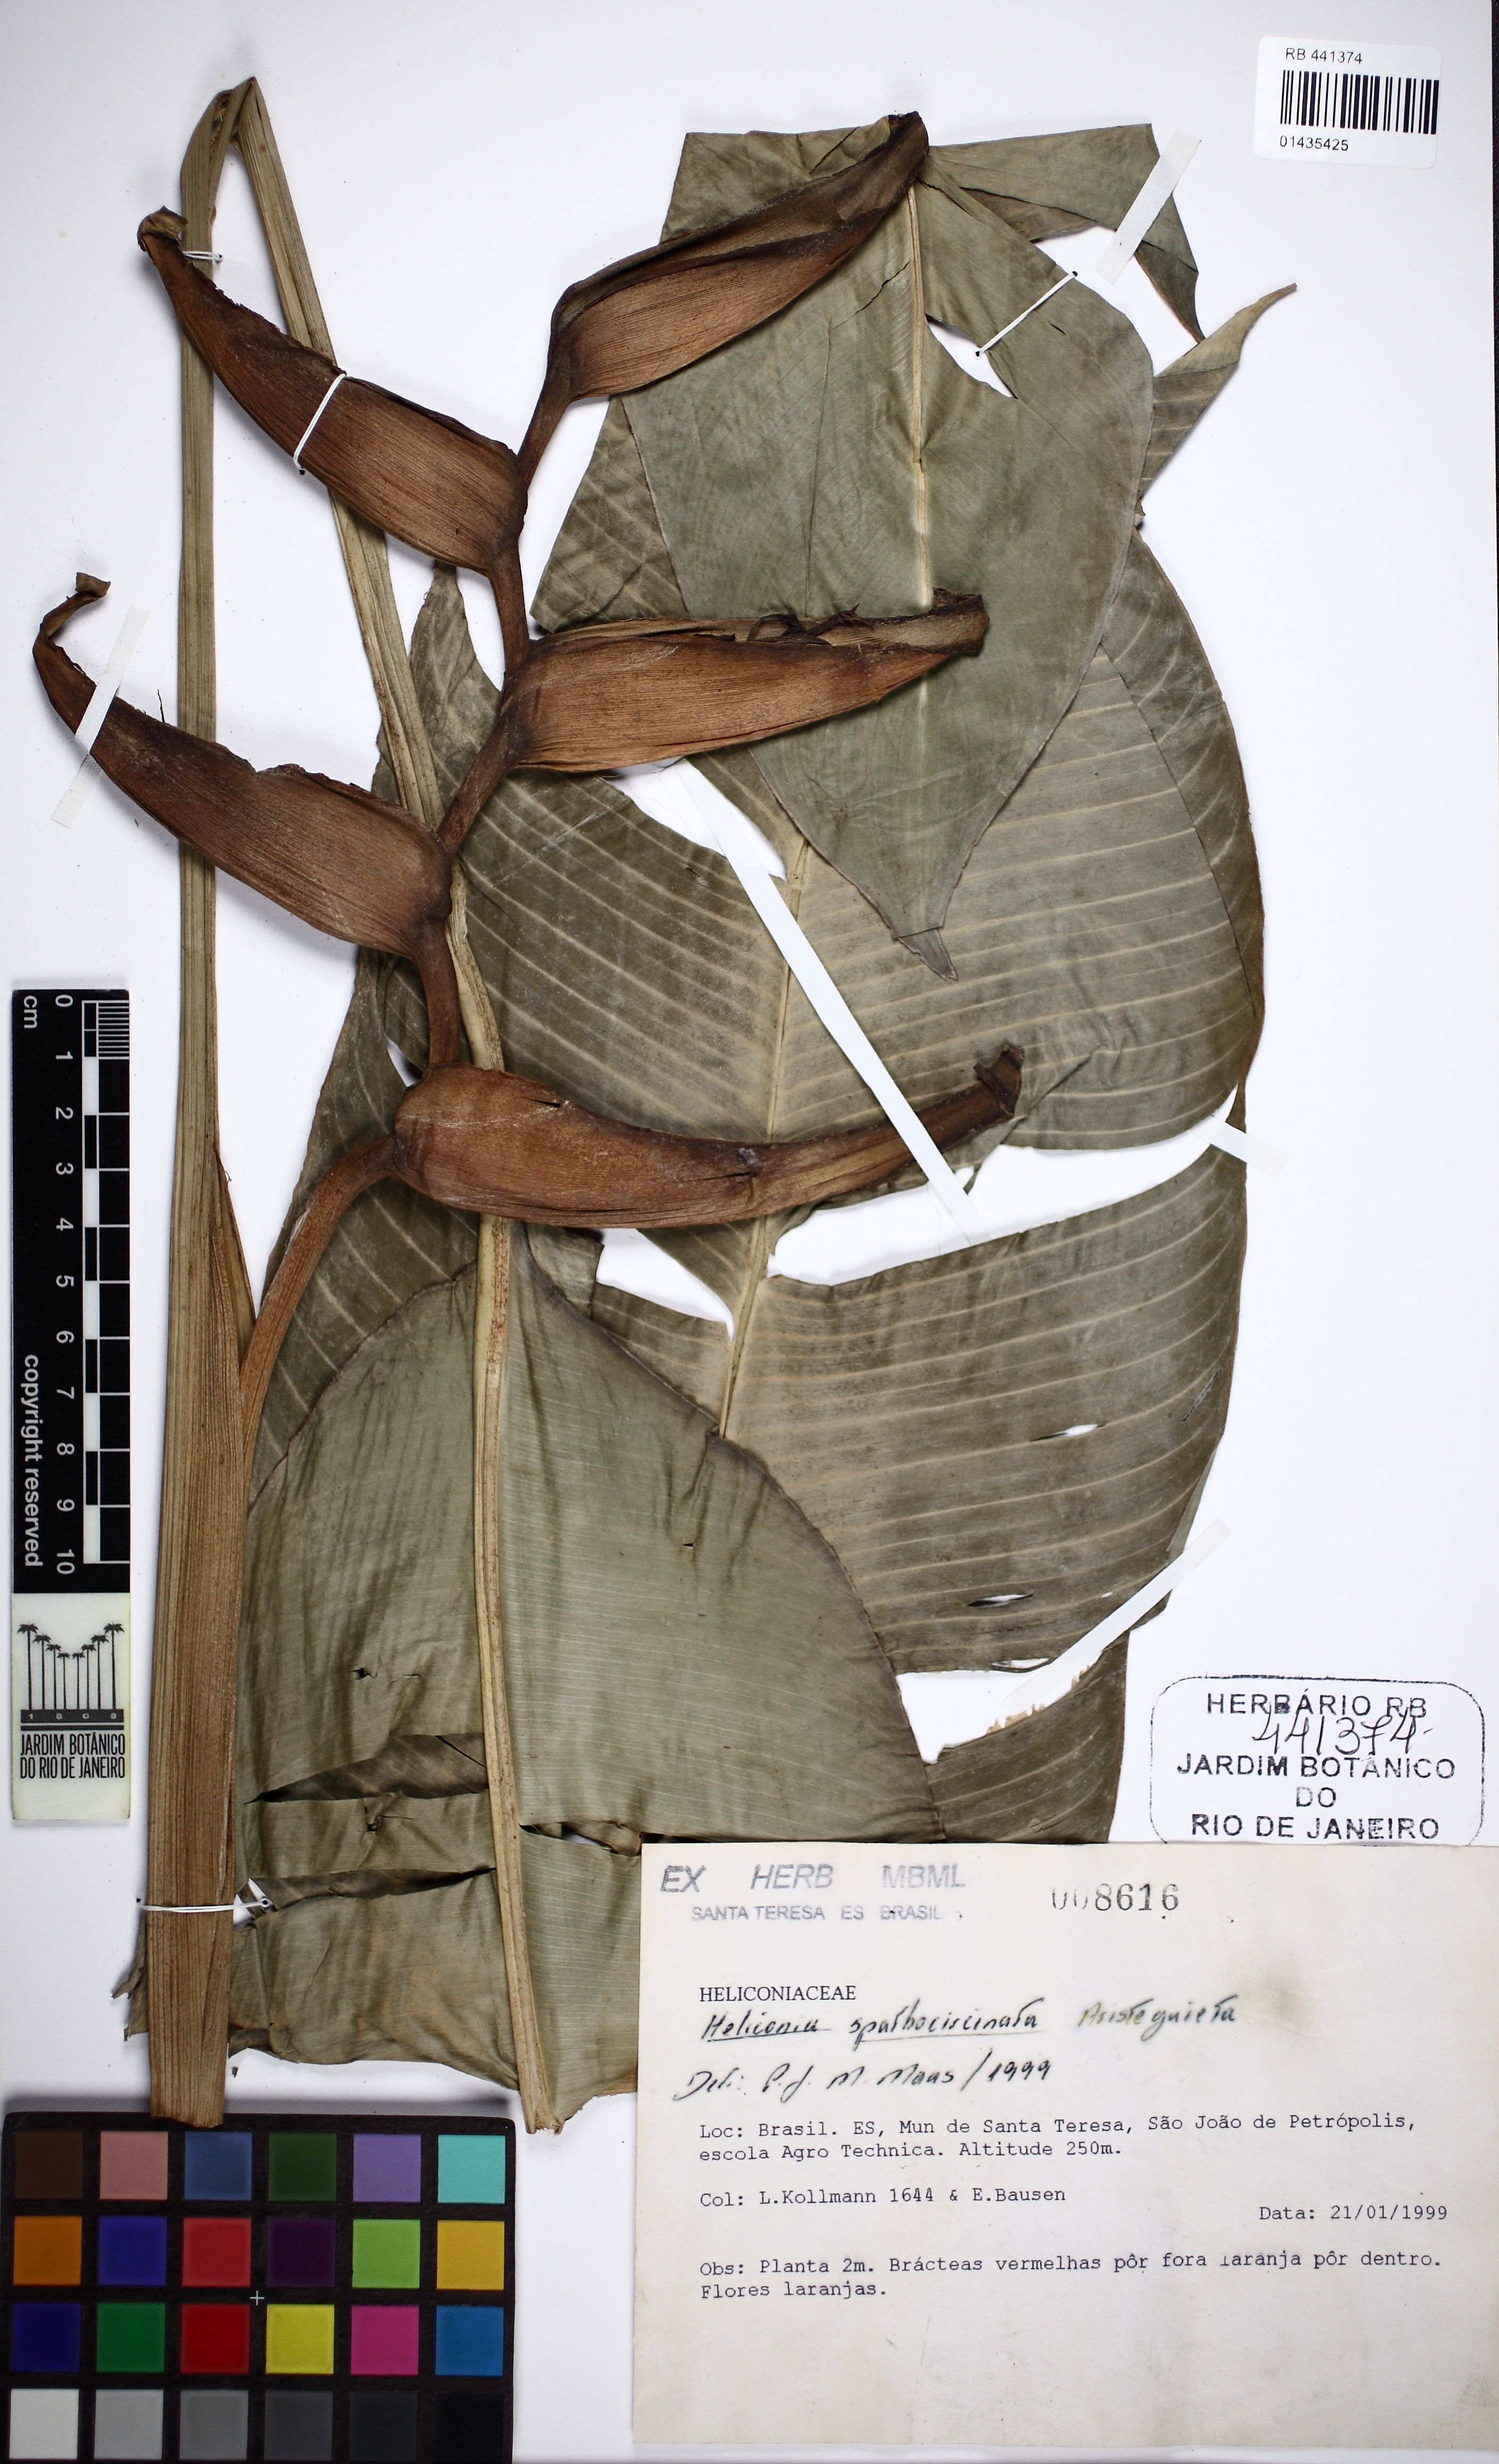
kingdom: Plantae
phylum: Tracheophyta
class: Liliopsida
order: Zingiberales
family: Heliconiaceae
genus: Heliconia
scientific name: Heliconia spathocircinata
